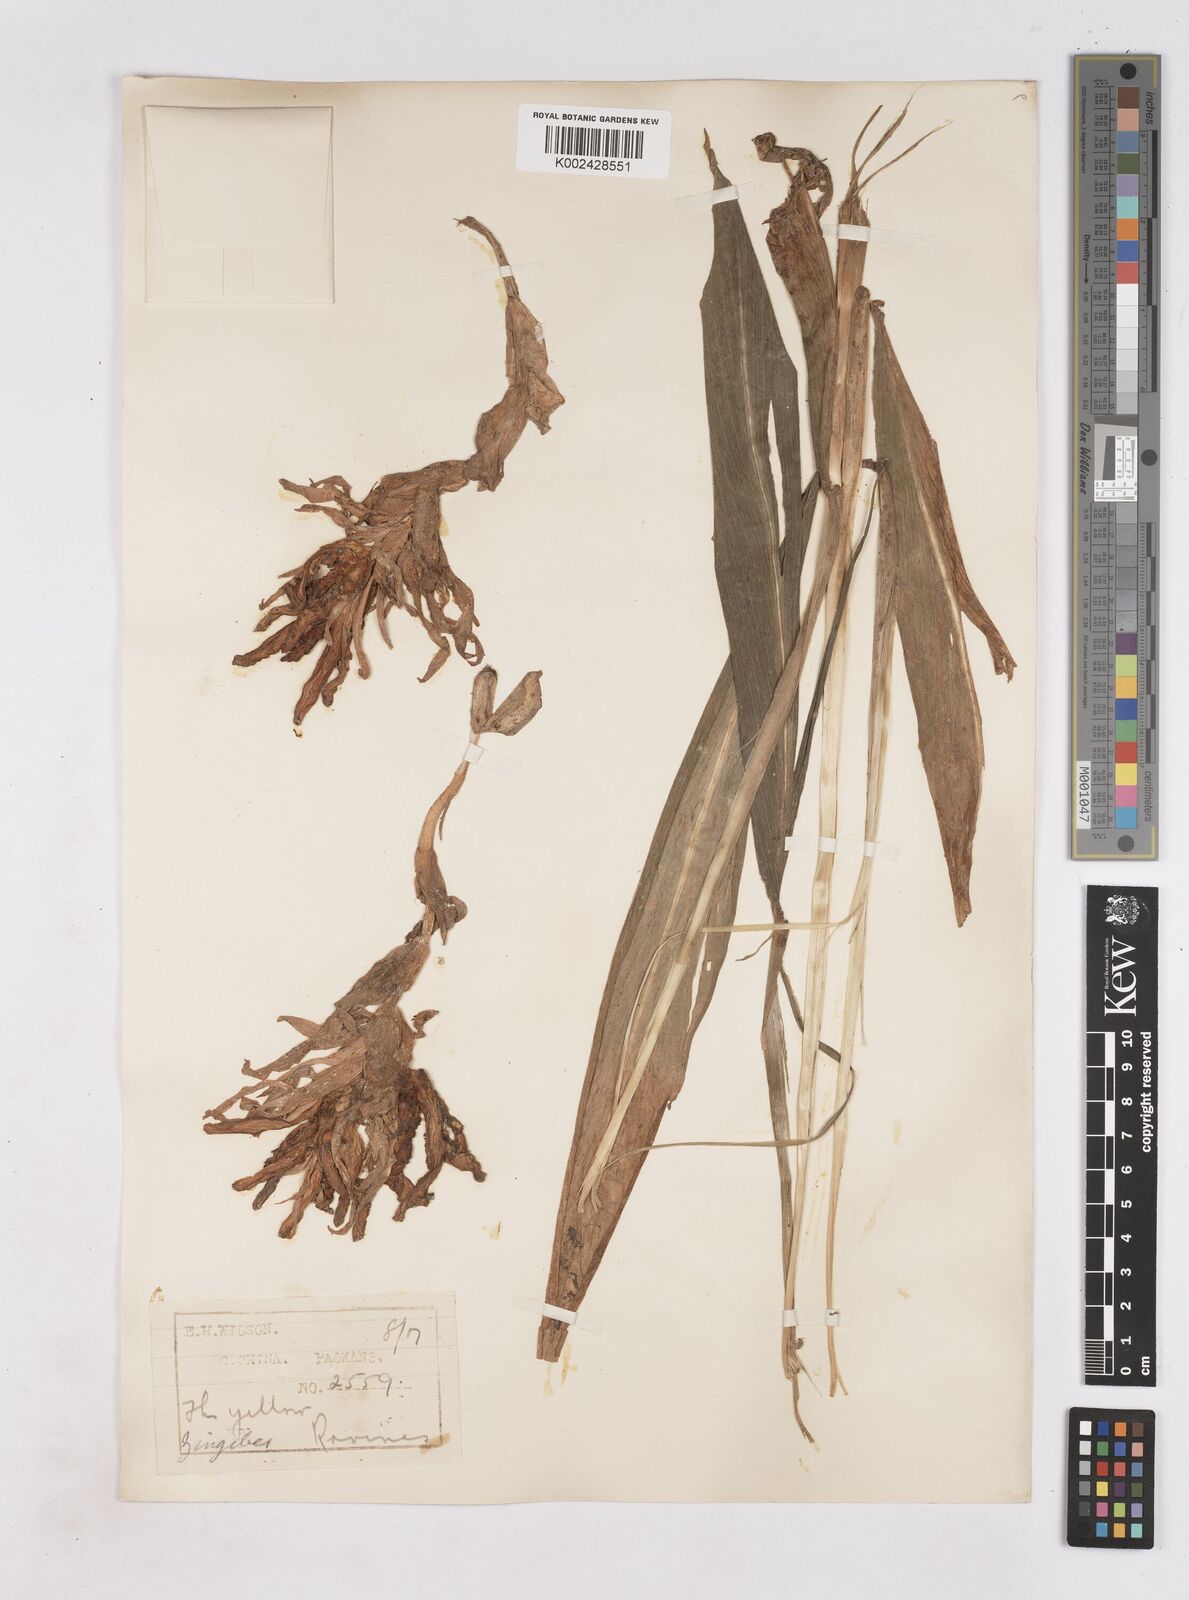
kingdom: Plantae
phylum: Tracheophyta
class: Liliopsida
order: Zingiberales
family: Zingiberaceae
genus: Zingiber
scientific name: Zingiber
